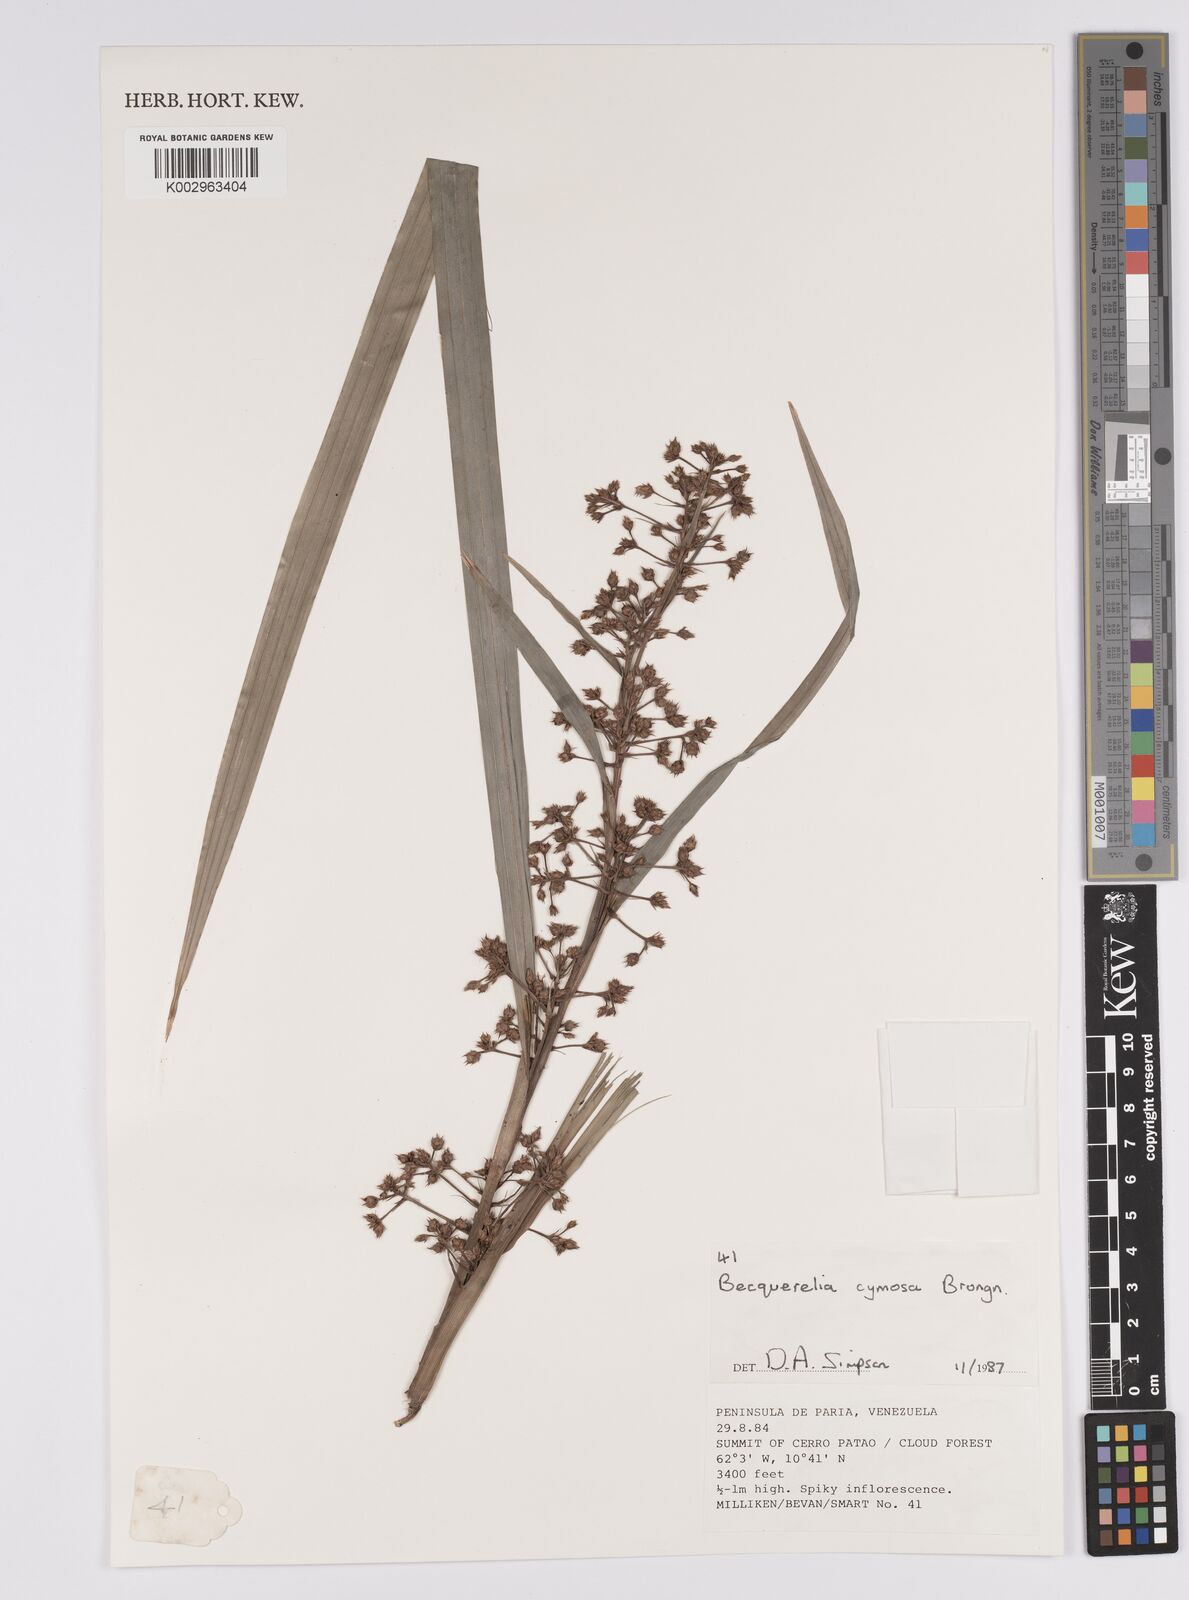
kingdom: Plantae
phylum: Tracheophyta
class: Liliopsida
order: Poales
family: Cyperaceae
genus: Becquerelia
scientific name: Becquerelia cymosa
